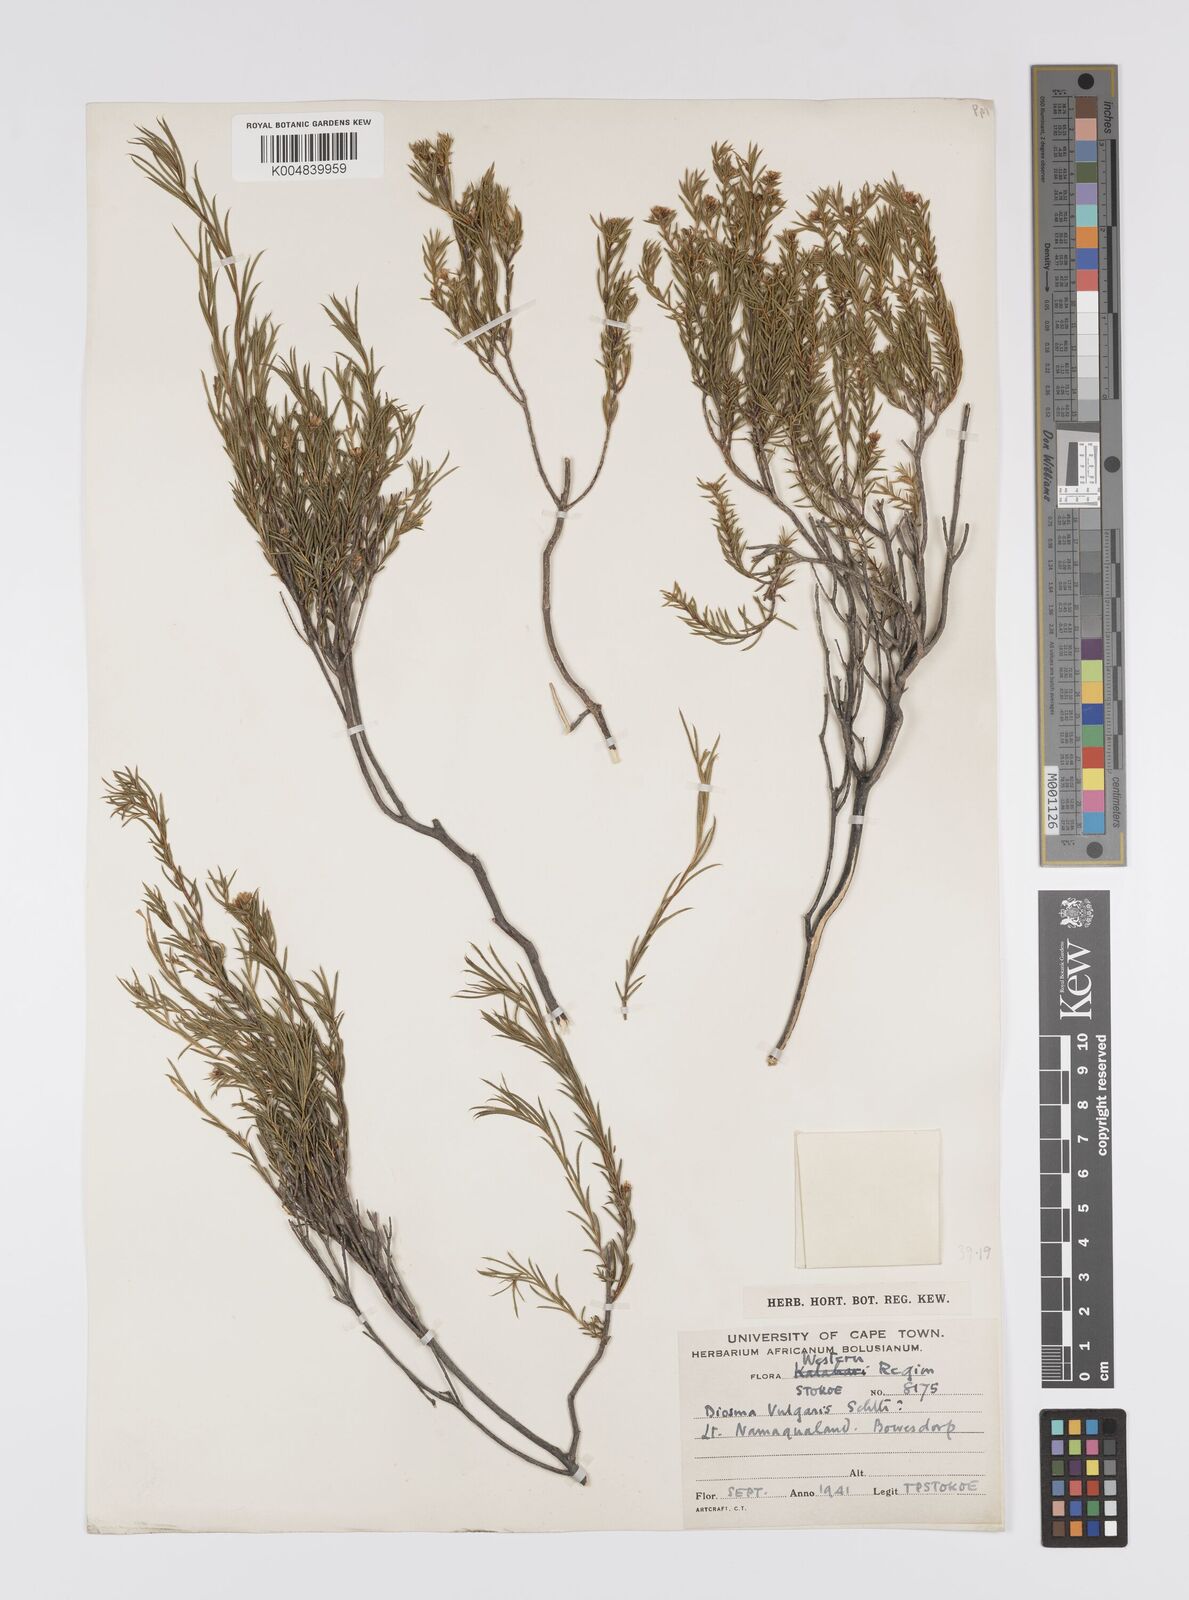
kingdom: Plantae
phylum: Tracheophyta
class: Magnoliopsida
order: Sapindales
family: Rutaceae
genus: Diosma
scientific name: Diosma acmaeophylla
